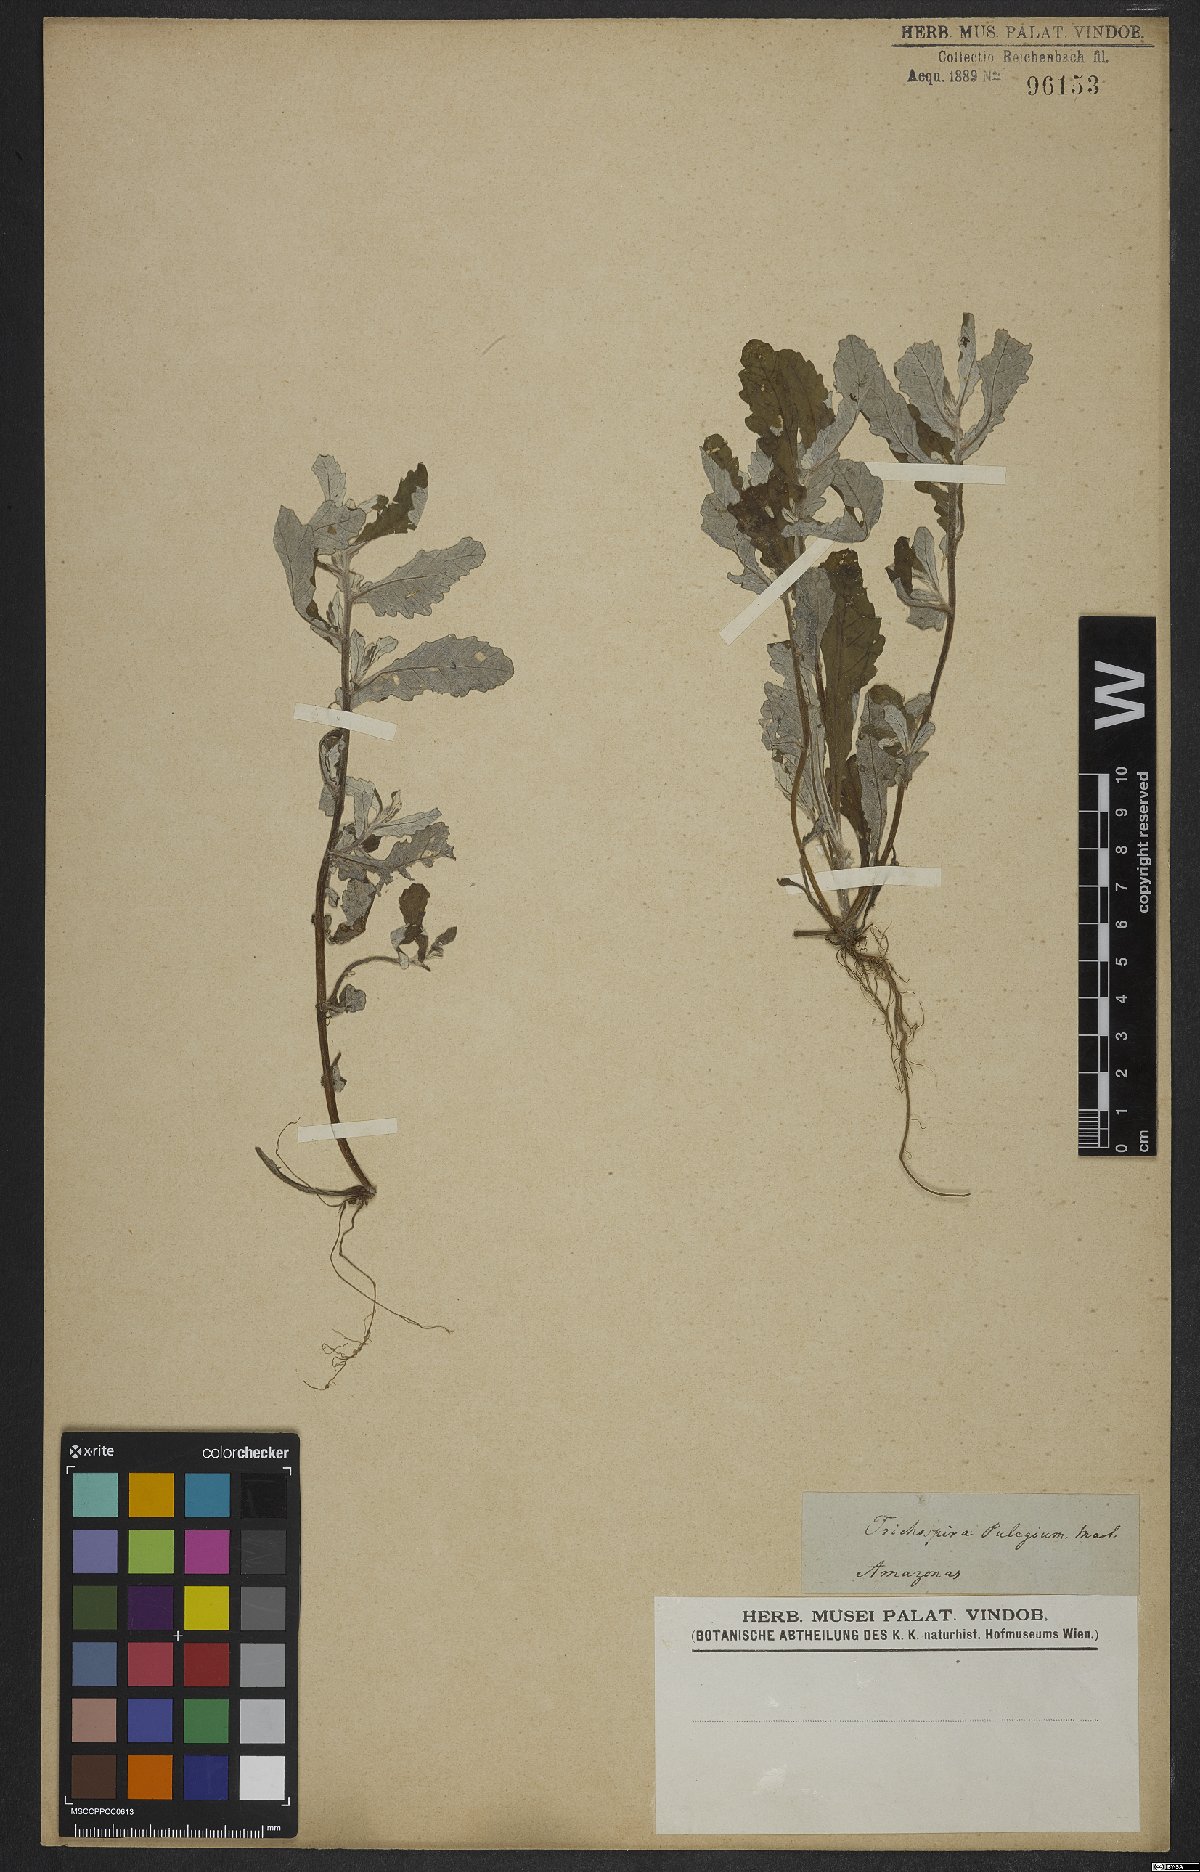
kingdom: Chromista
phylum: Ciliophora
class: Kinetofragminophora
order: Trichostomatida
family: Trichospiridae
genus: Trichospira
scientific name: Trichospira verticillata
